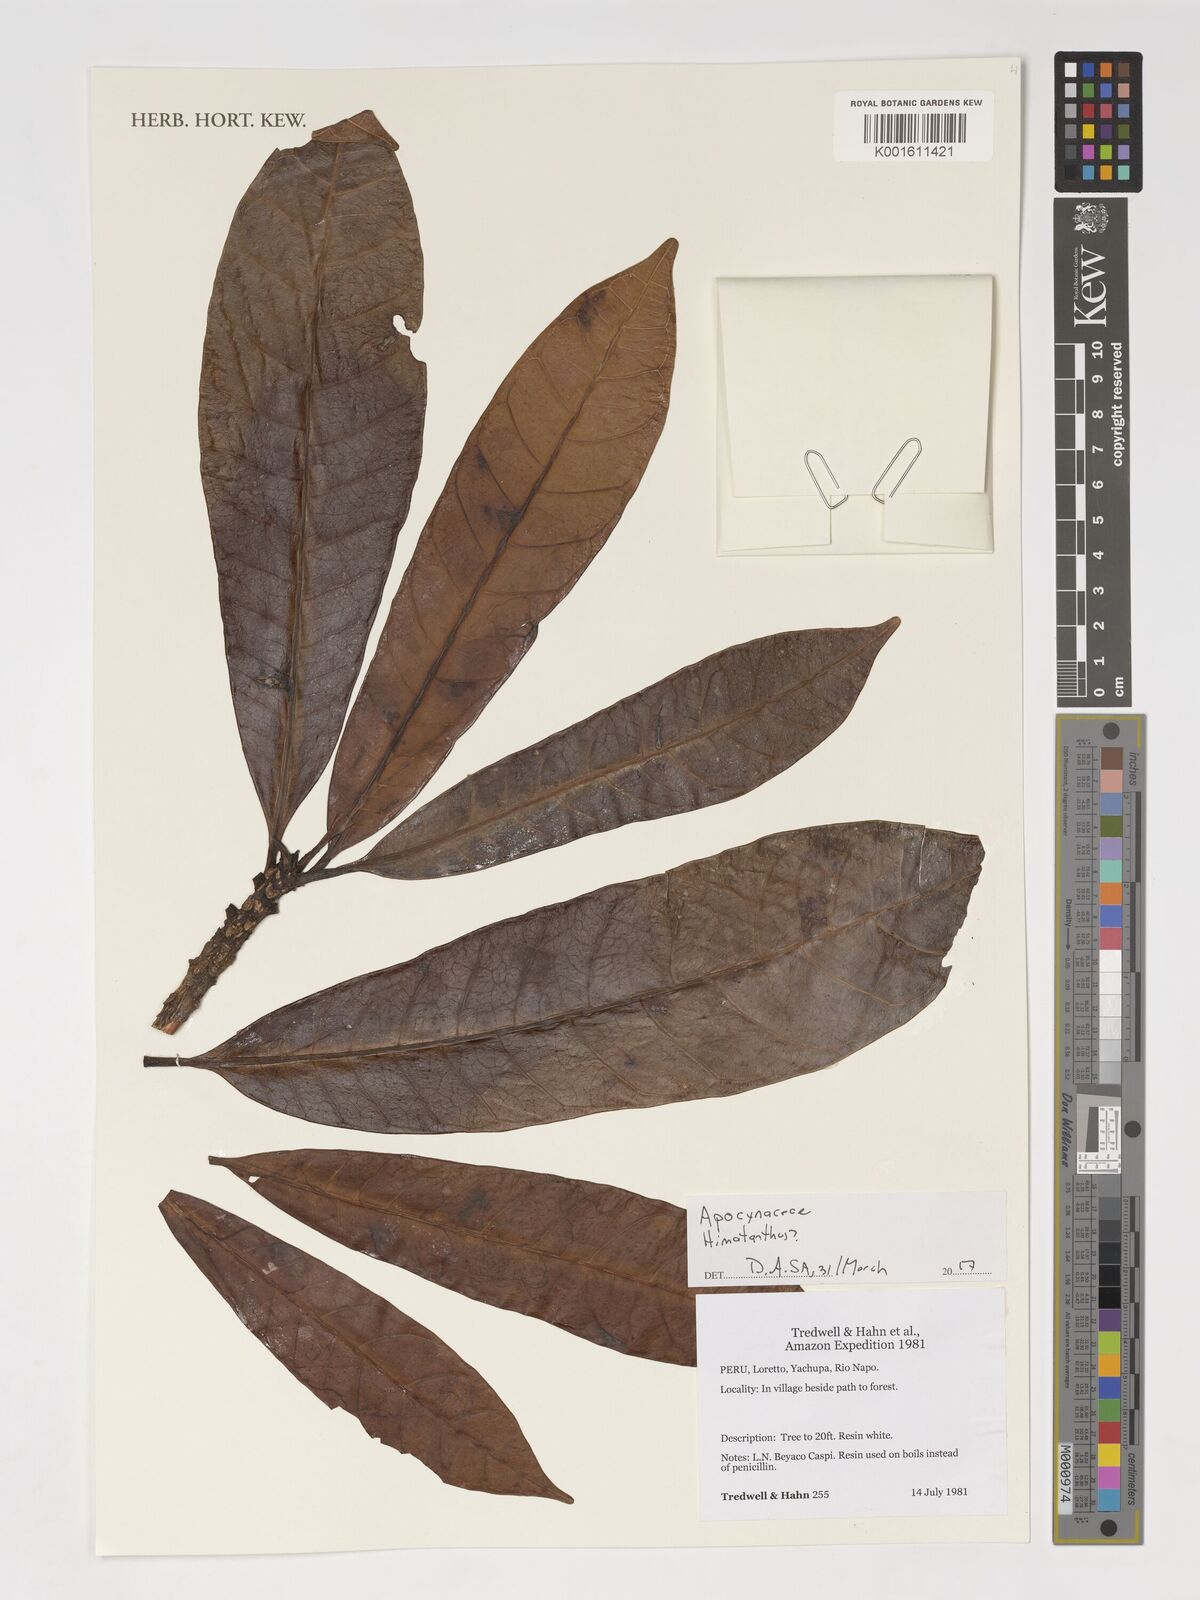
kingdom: Plantae
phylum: Tracheophyta
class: Magnoliopsida
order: Gentianales
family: Apocynaceae
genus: Himatanthus
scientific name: Himatanthus
